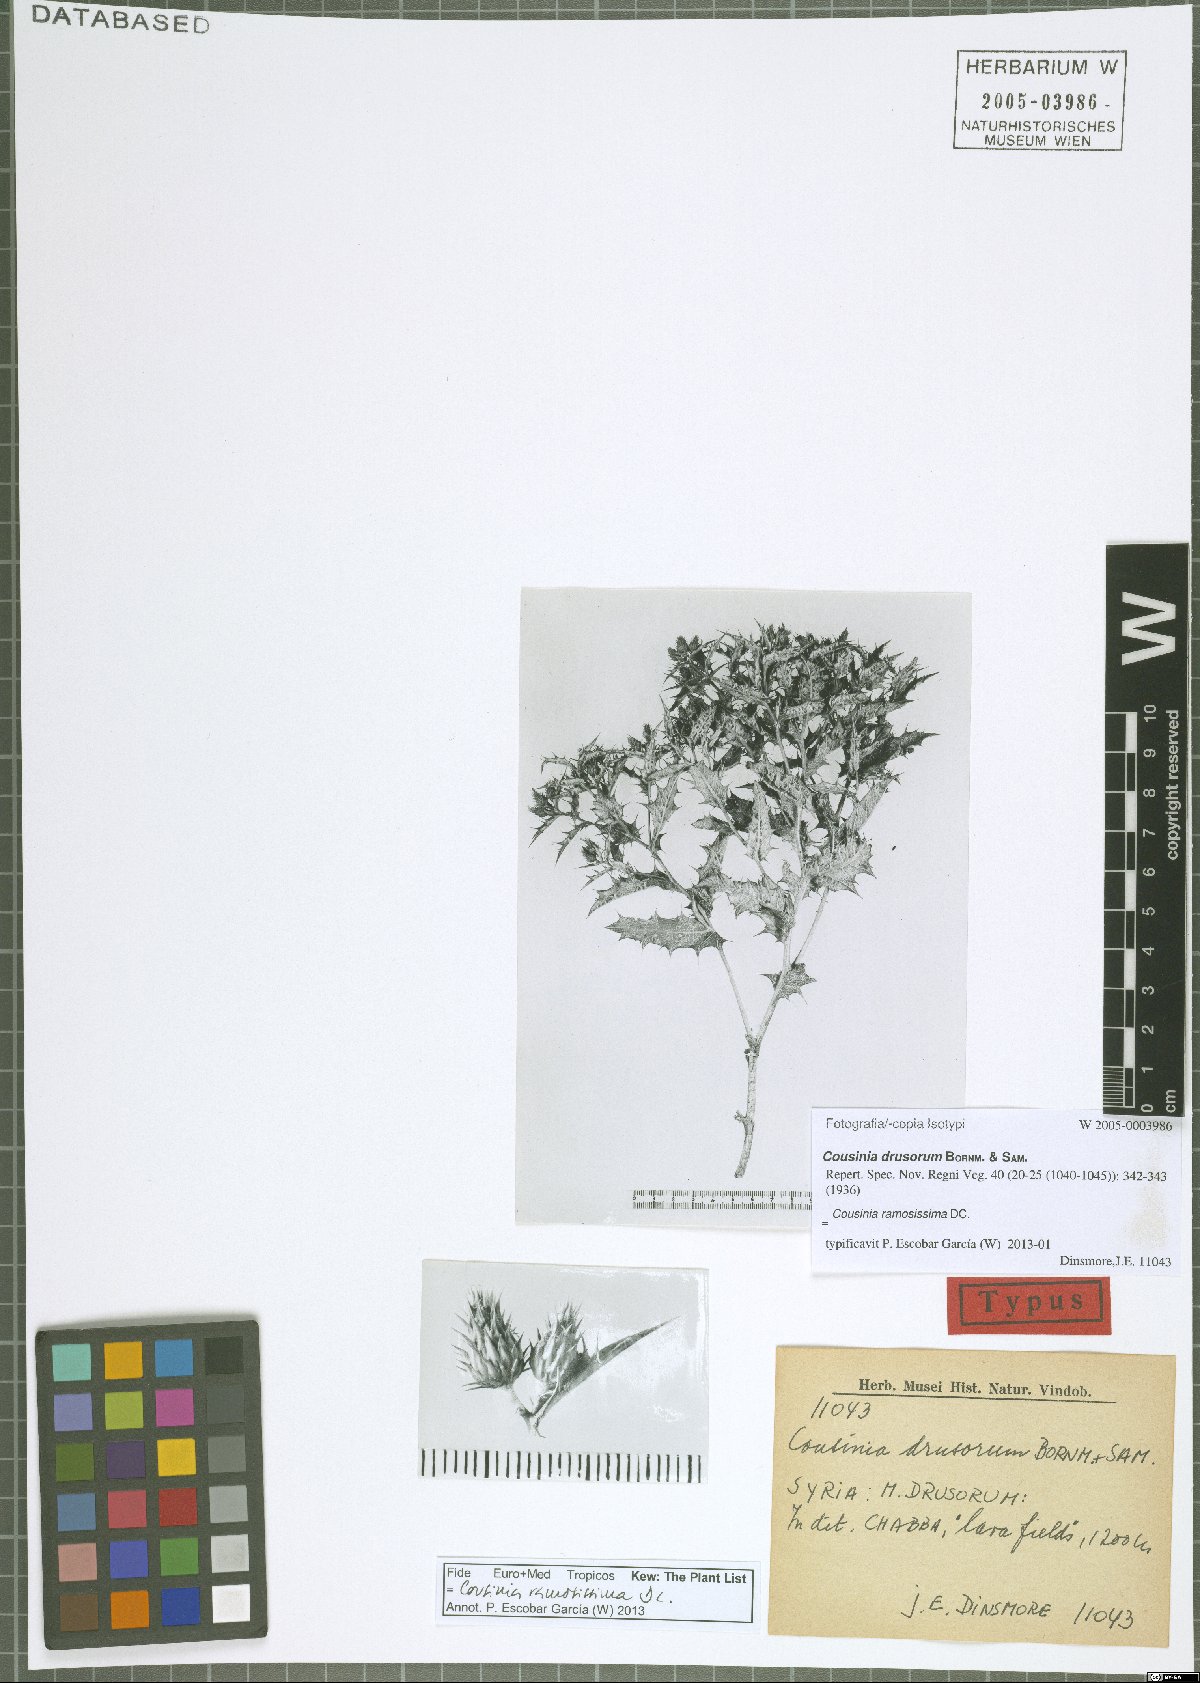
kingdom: Plantae
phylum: Tracheophyta
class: Magnoliopsida
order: Asterales
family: Asteraceae
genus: Cousinia
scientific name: Cousinia ramosissima
